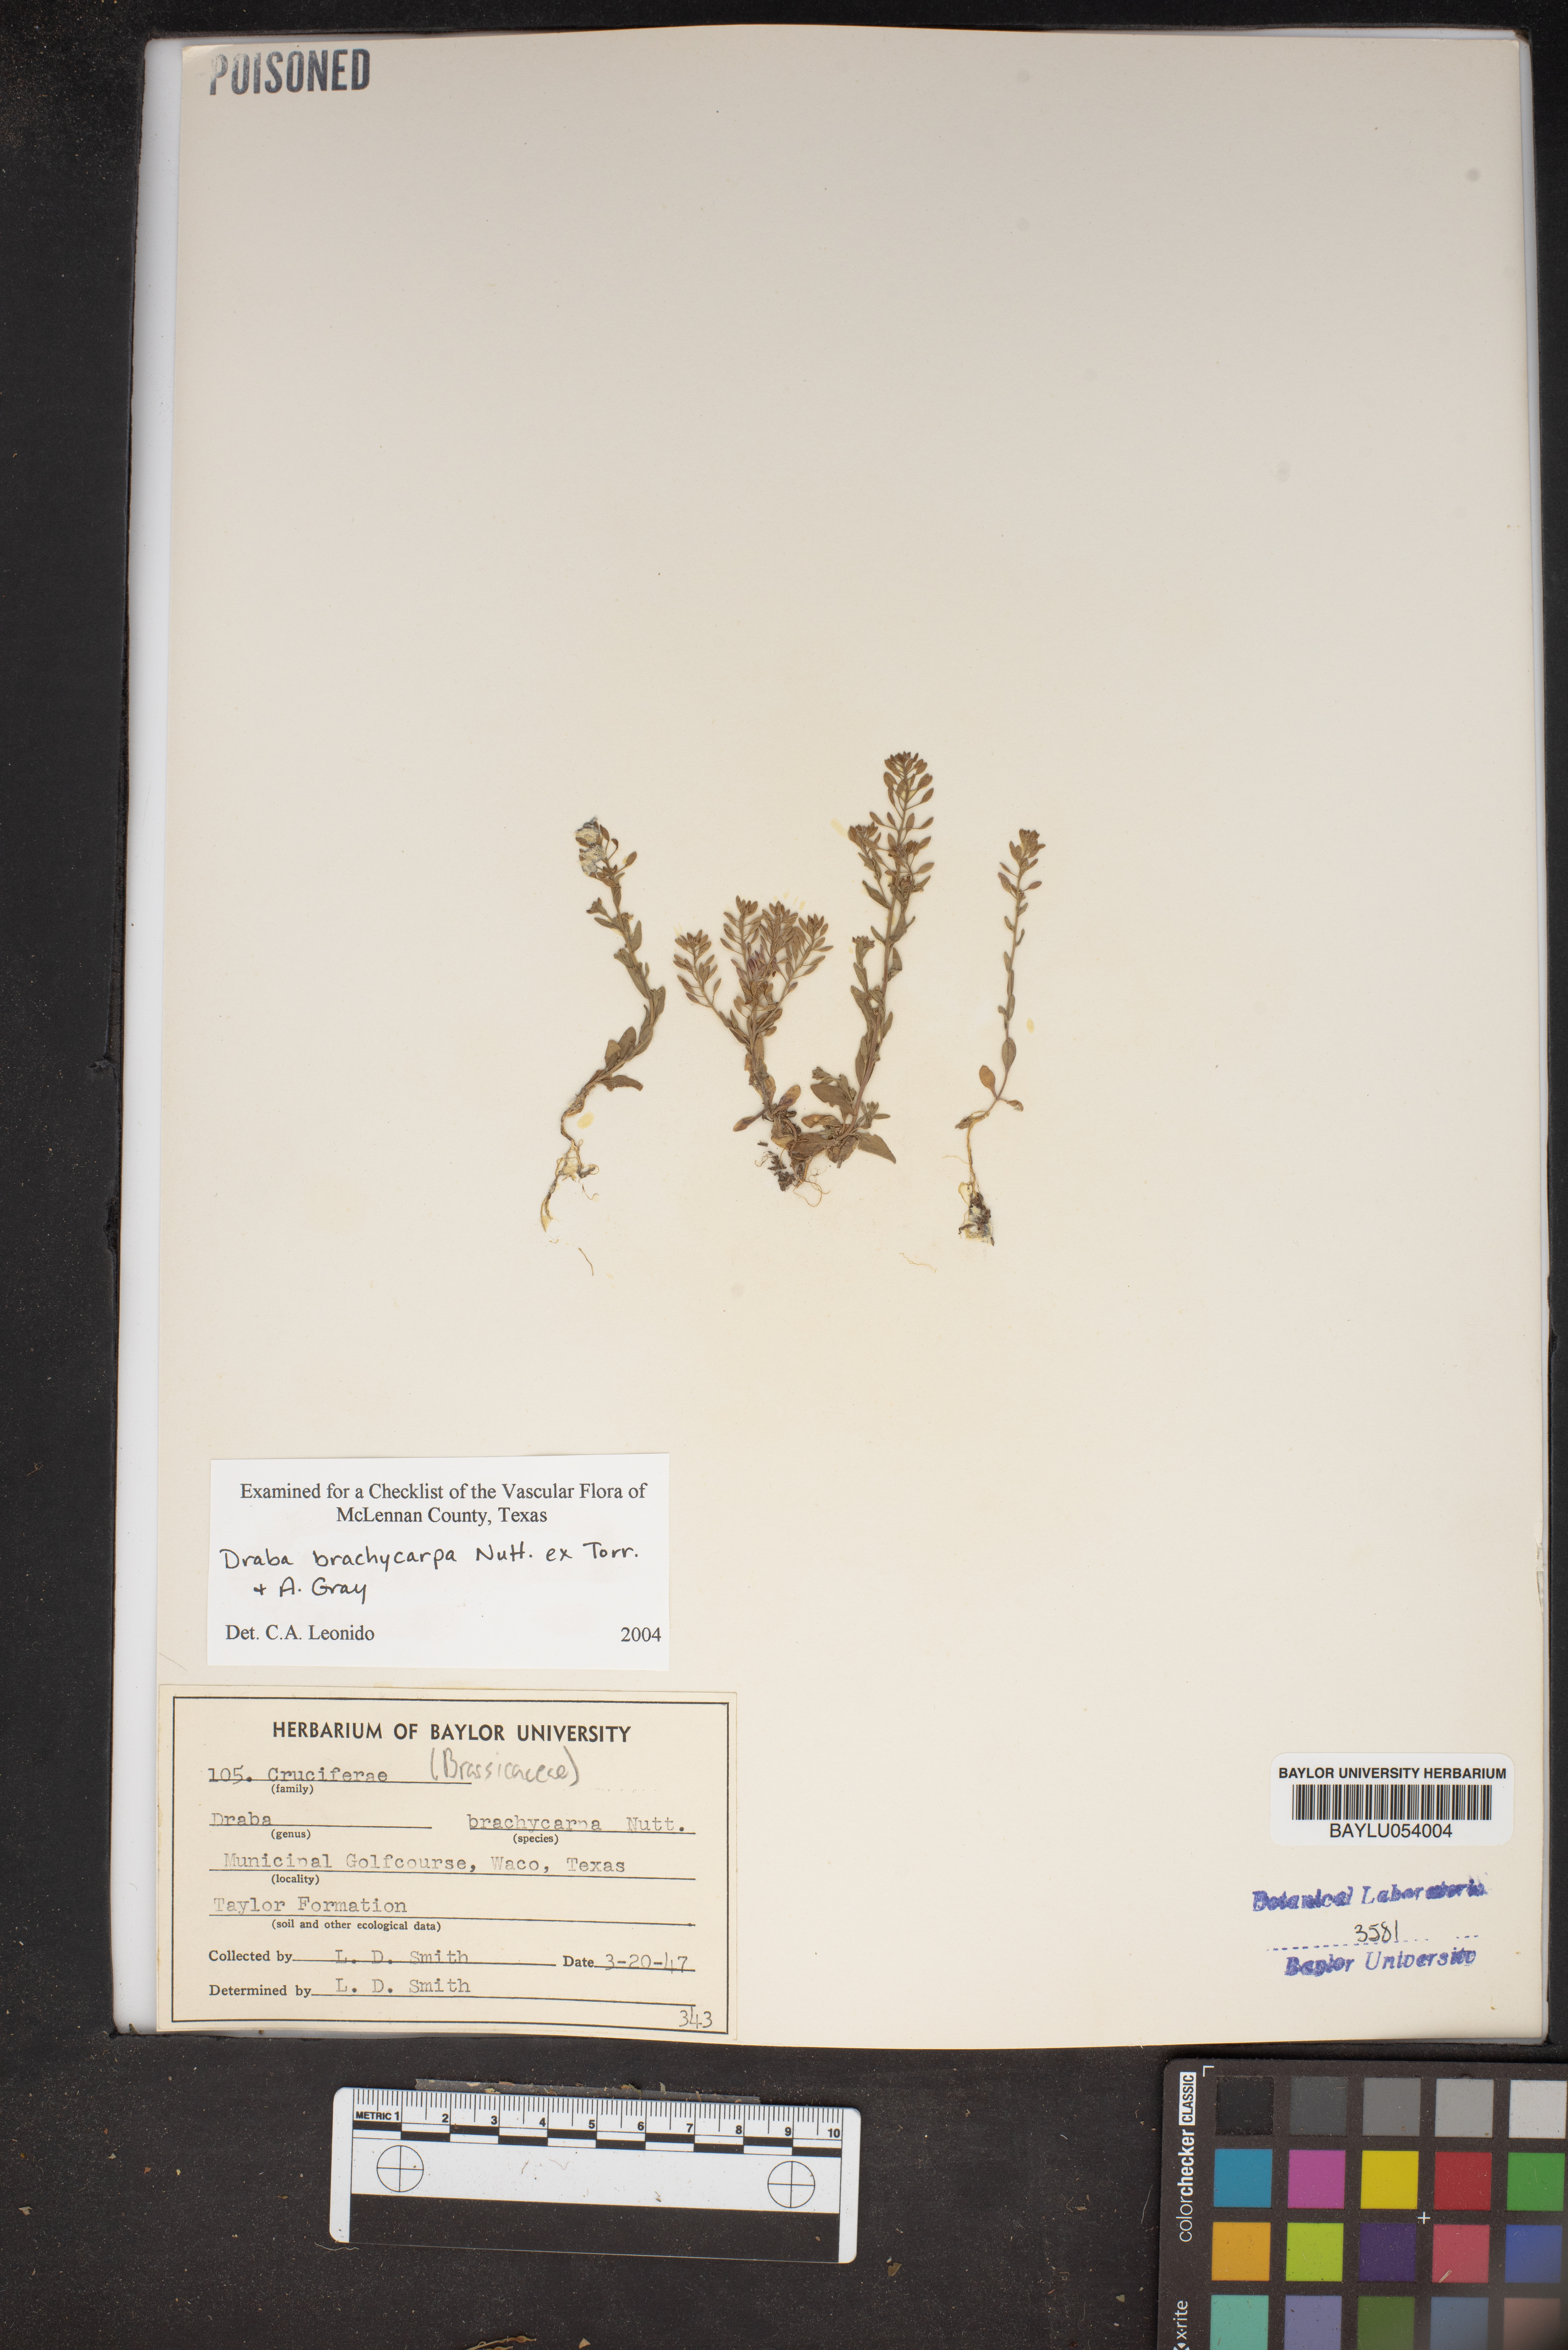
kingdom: Plantae
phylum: Tracheophyta
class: Magnoliopsida
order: Brassicales
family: Brassicaceae
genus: Abdra
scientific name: Abdra brachycarpa
